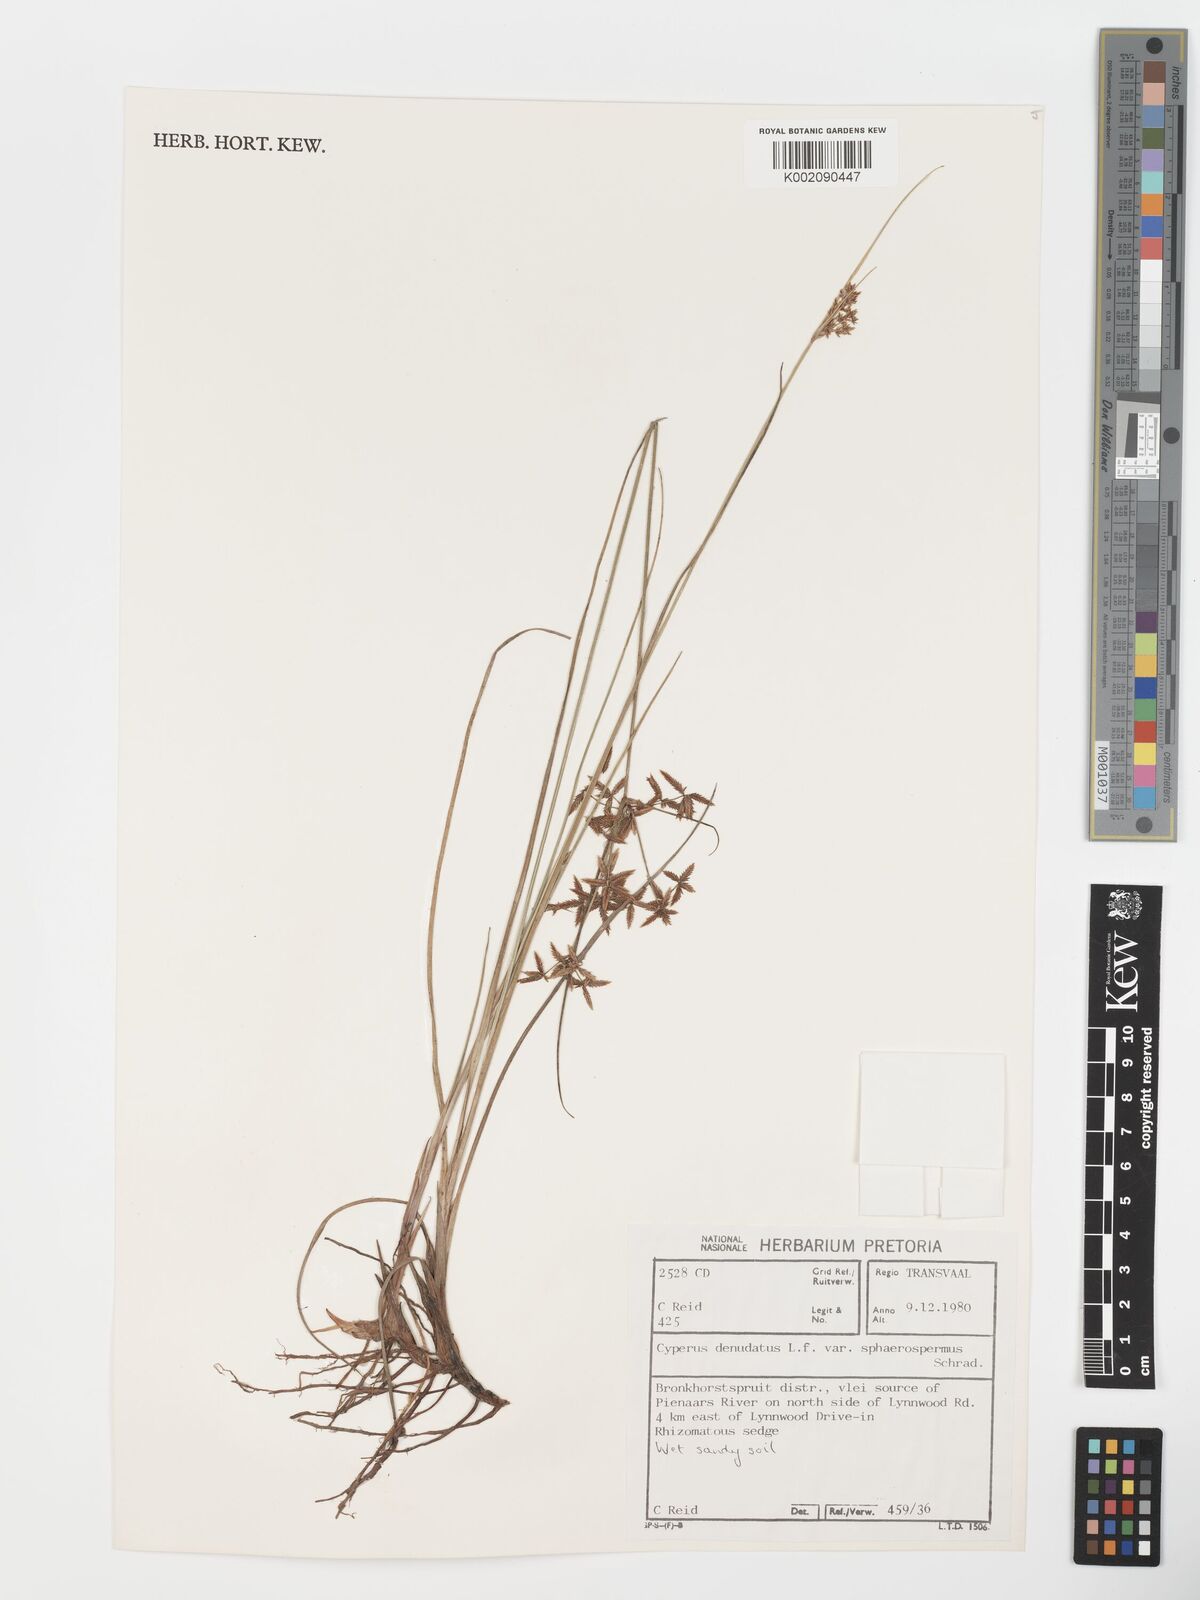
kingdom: Plantae
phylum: Tracheophyta
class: Liliopsida
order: Poales
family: Cyperaceae
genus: Cyperus
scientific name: Cyperus sphaerospermus
